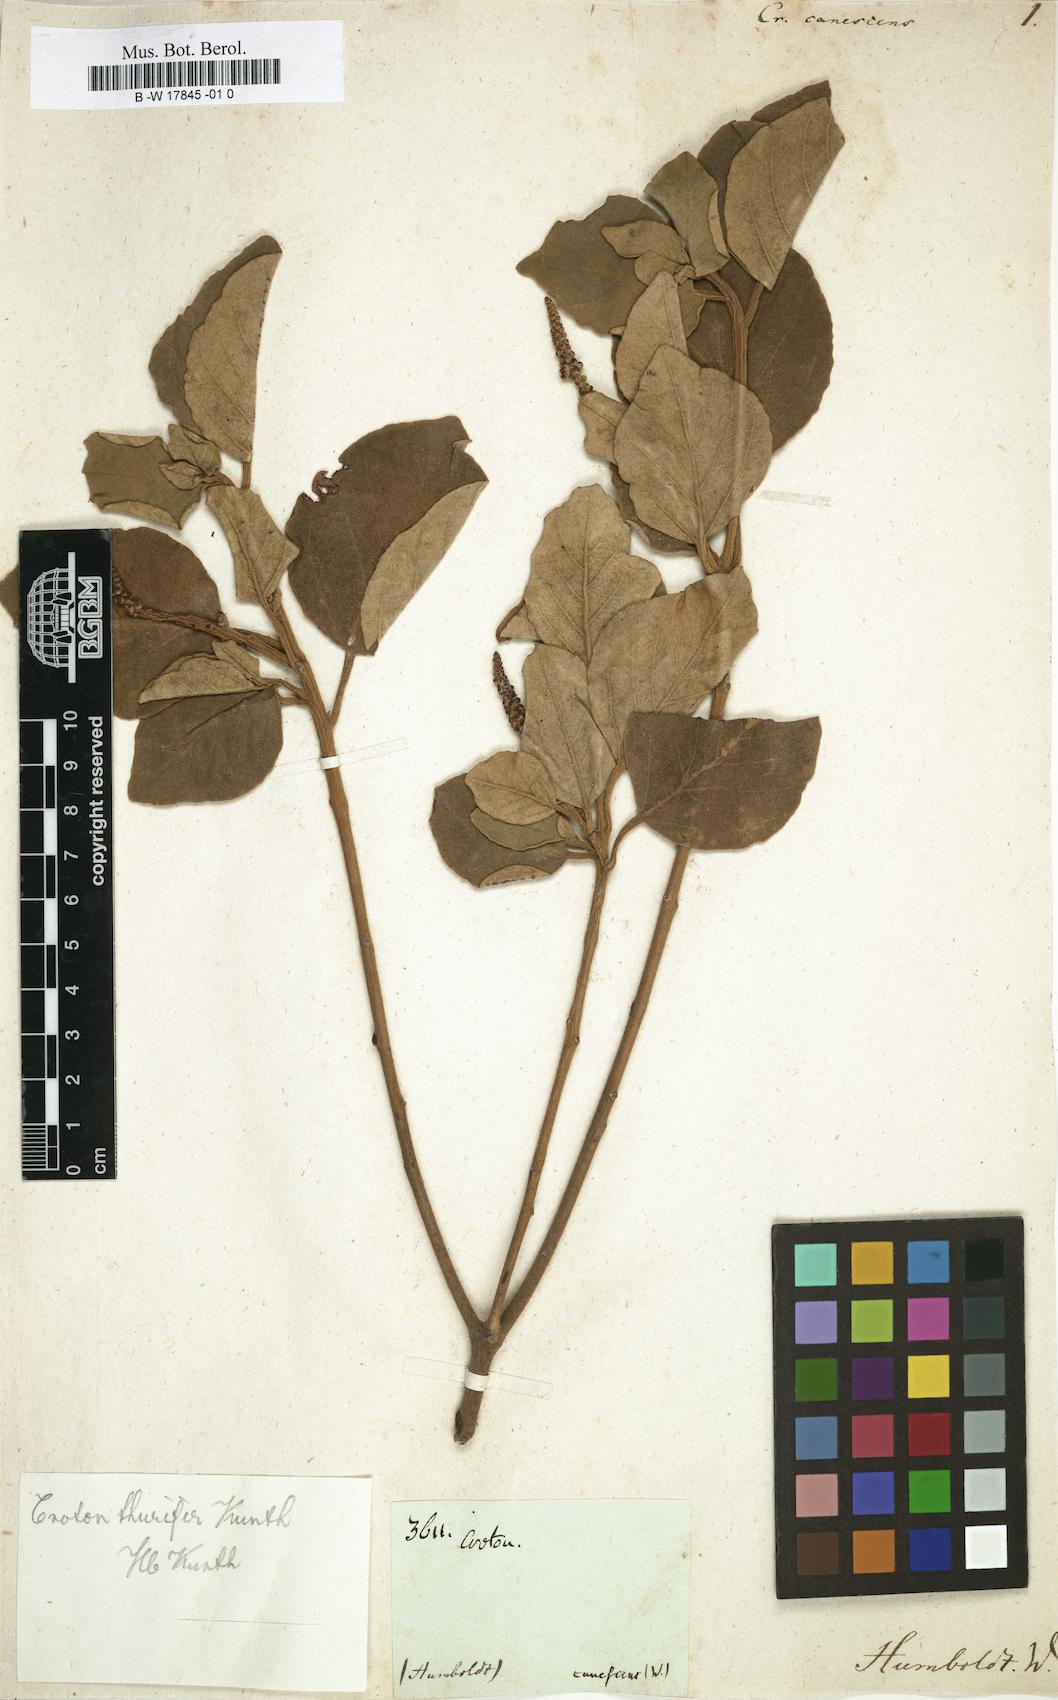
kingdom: Plantae
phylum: Tracheophyta
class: Magnoliopsida
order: Malpighiales
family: Euphorbiaceae
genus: Croton
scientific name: Croton mauritianus
